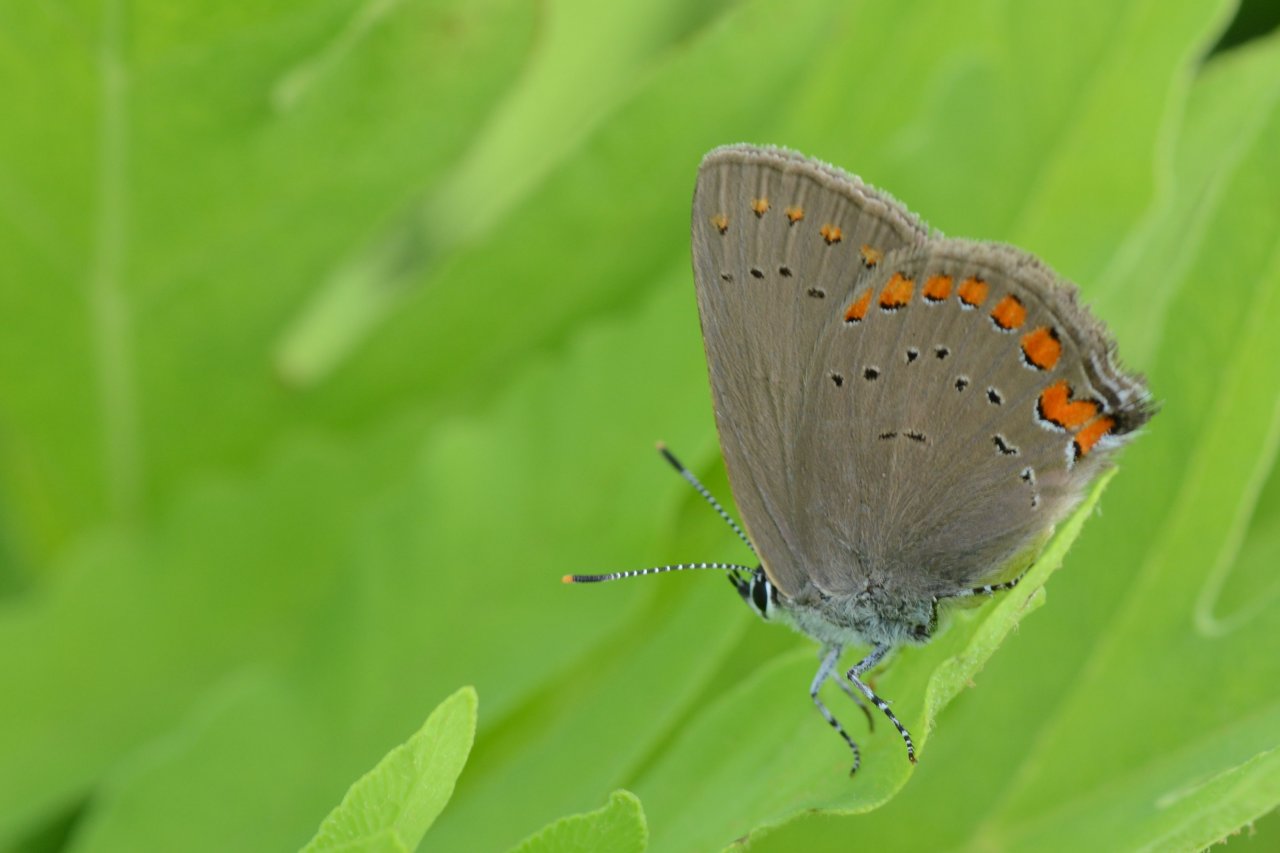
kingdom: Animalia
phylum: Arthropoda
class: Insecta
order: Lepidoptera
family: Lycaenidae
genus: Harkenclenus
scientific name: Harkenclenus titus
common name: Coral Hairstreak
